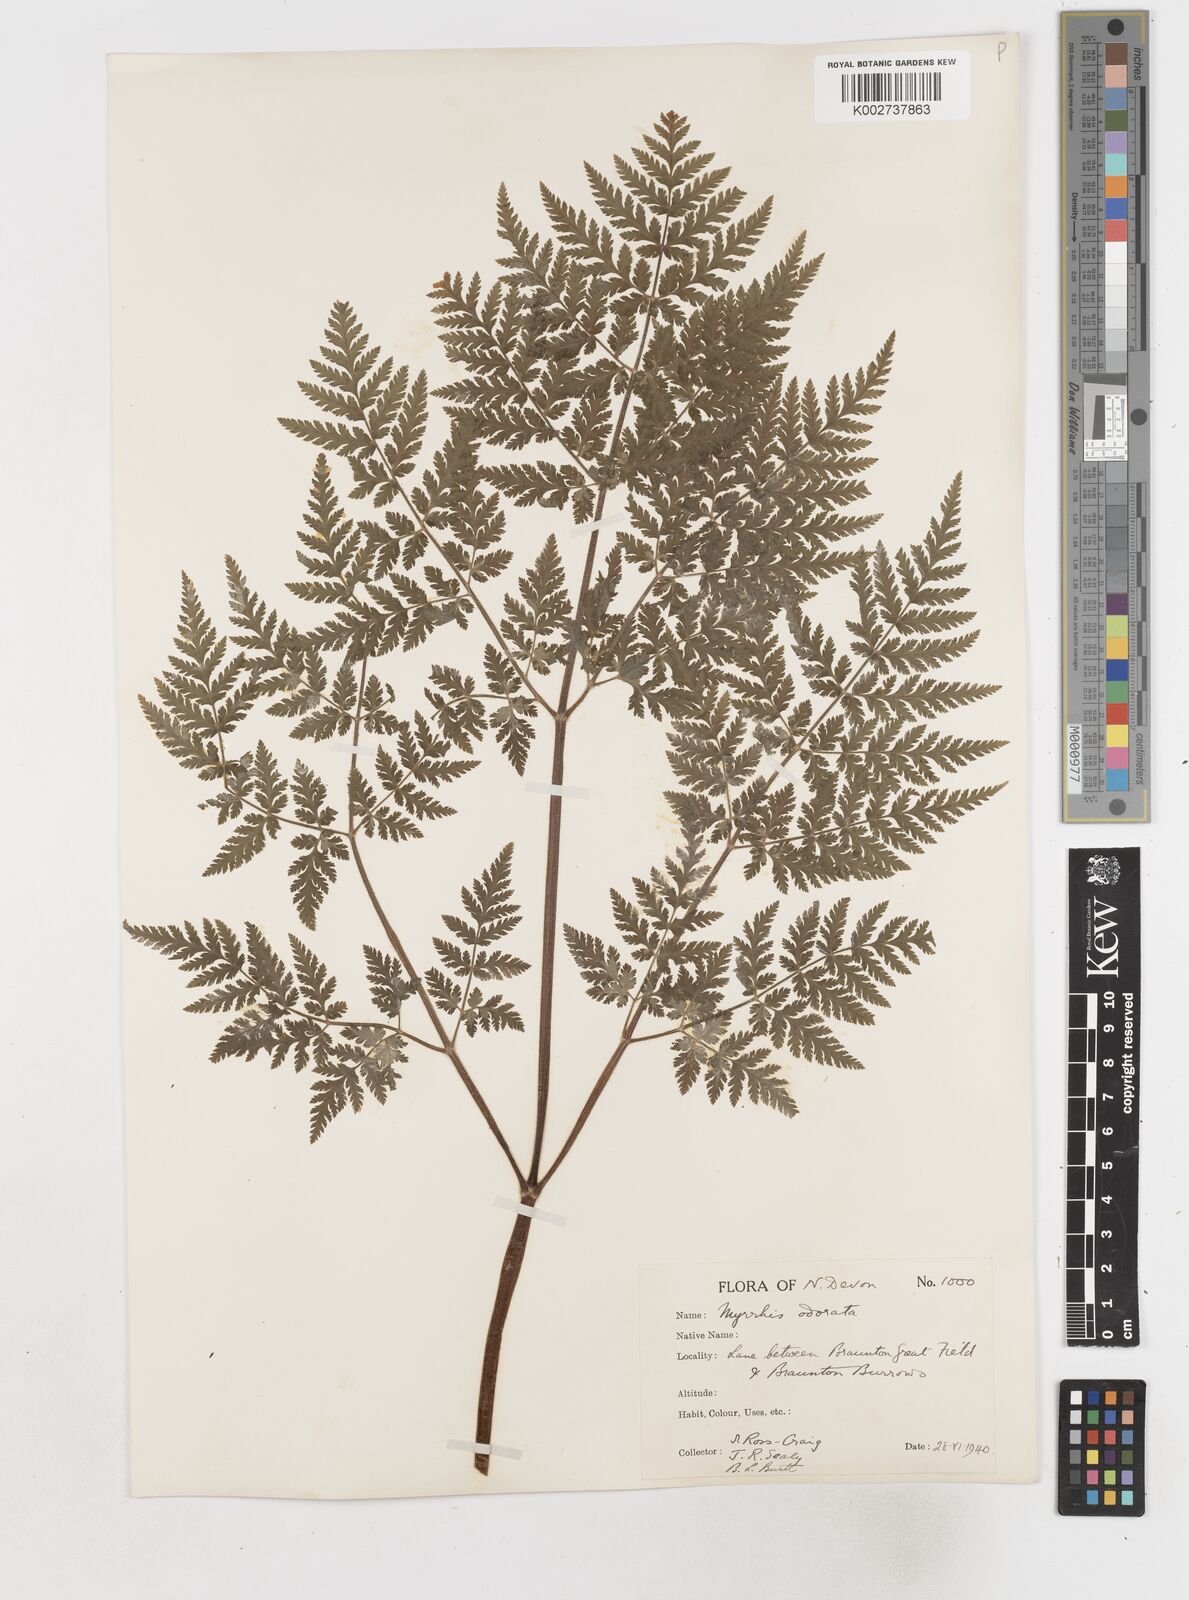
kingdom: Plantae
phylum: Tracheophyta
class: Magnoliopsida
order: Apiales
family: Apiaceae
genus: Myrrhis
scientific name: Myrrhis odorata
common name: Sweet cicely
